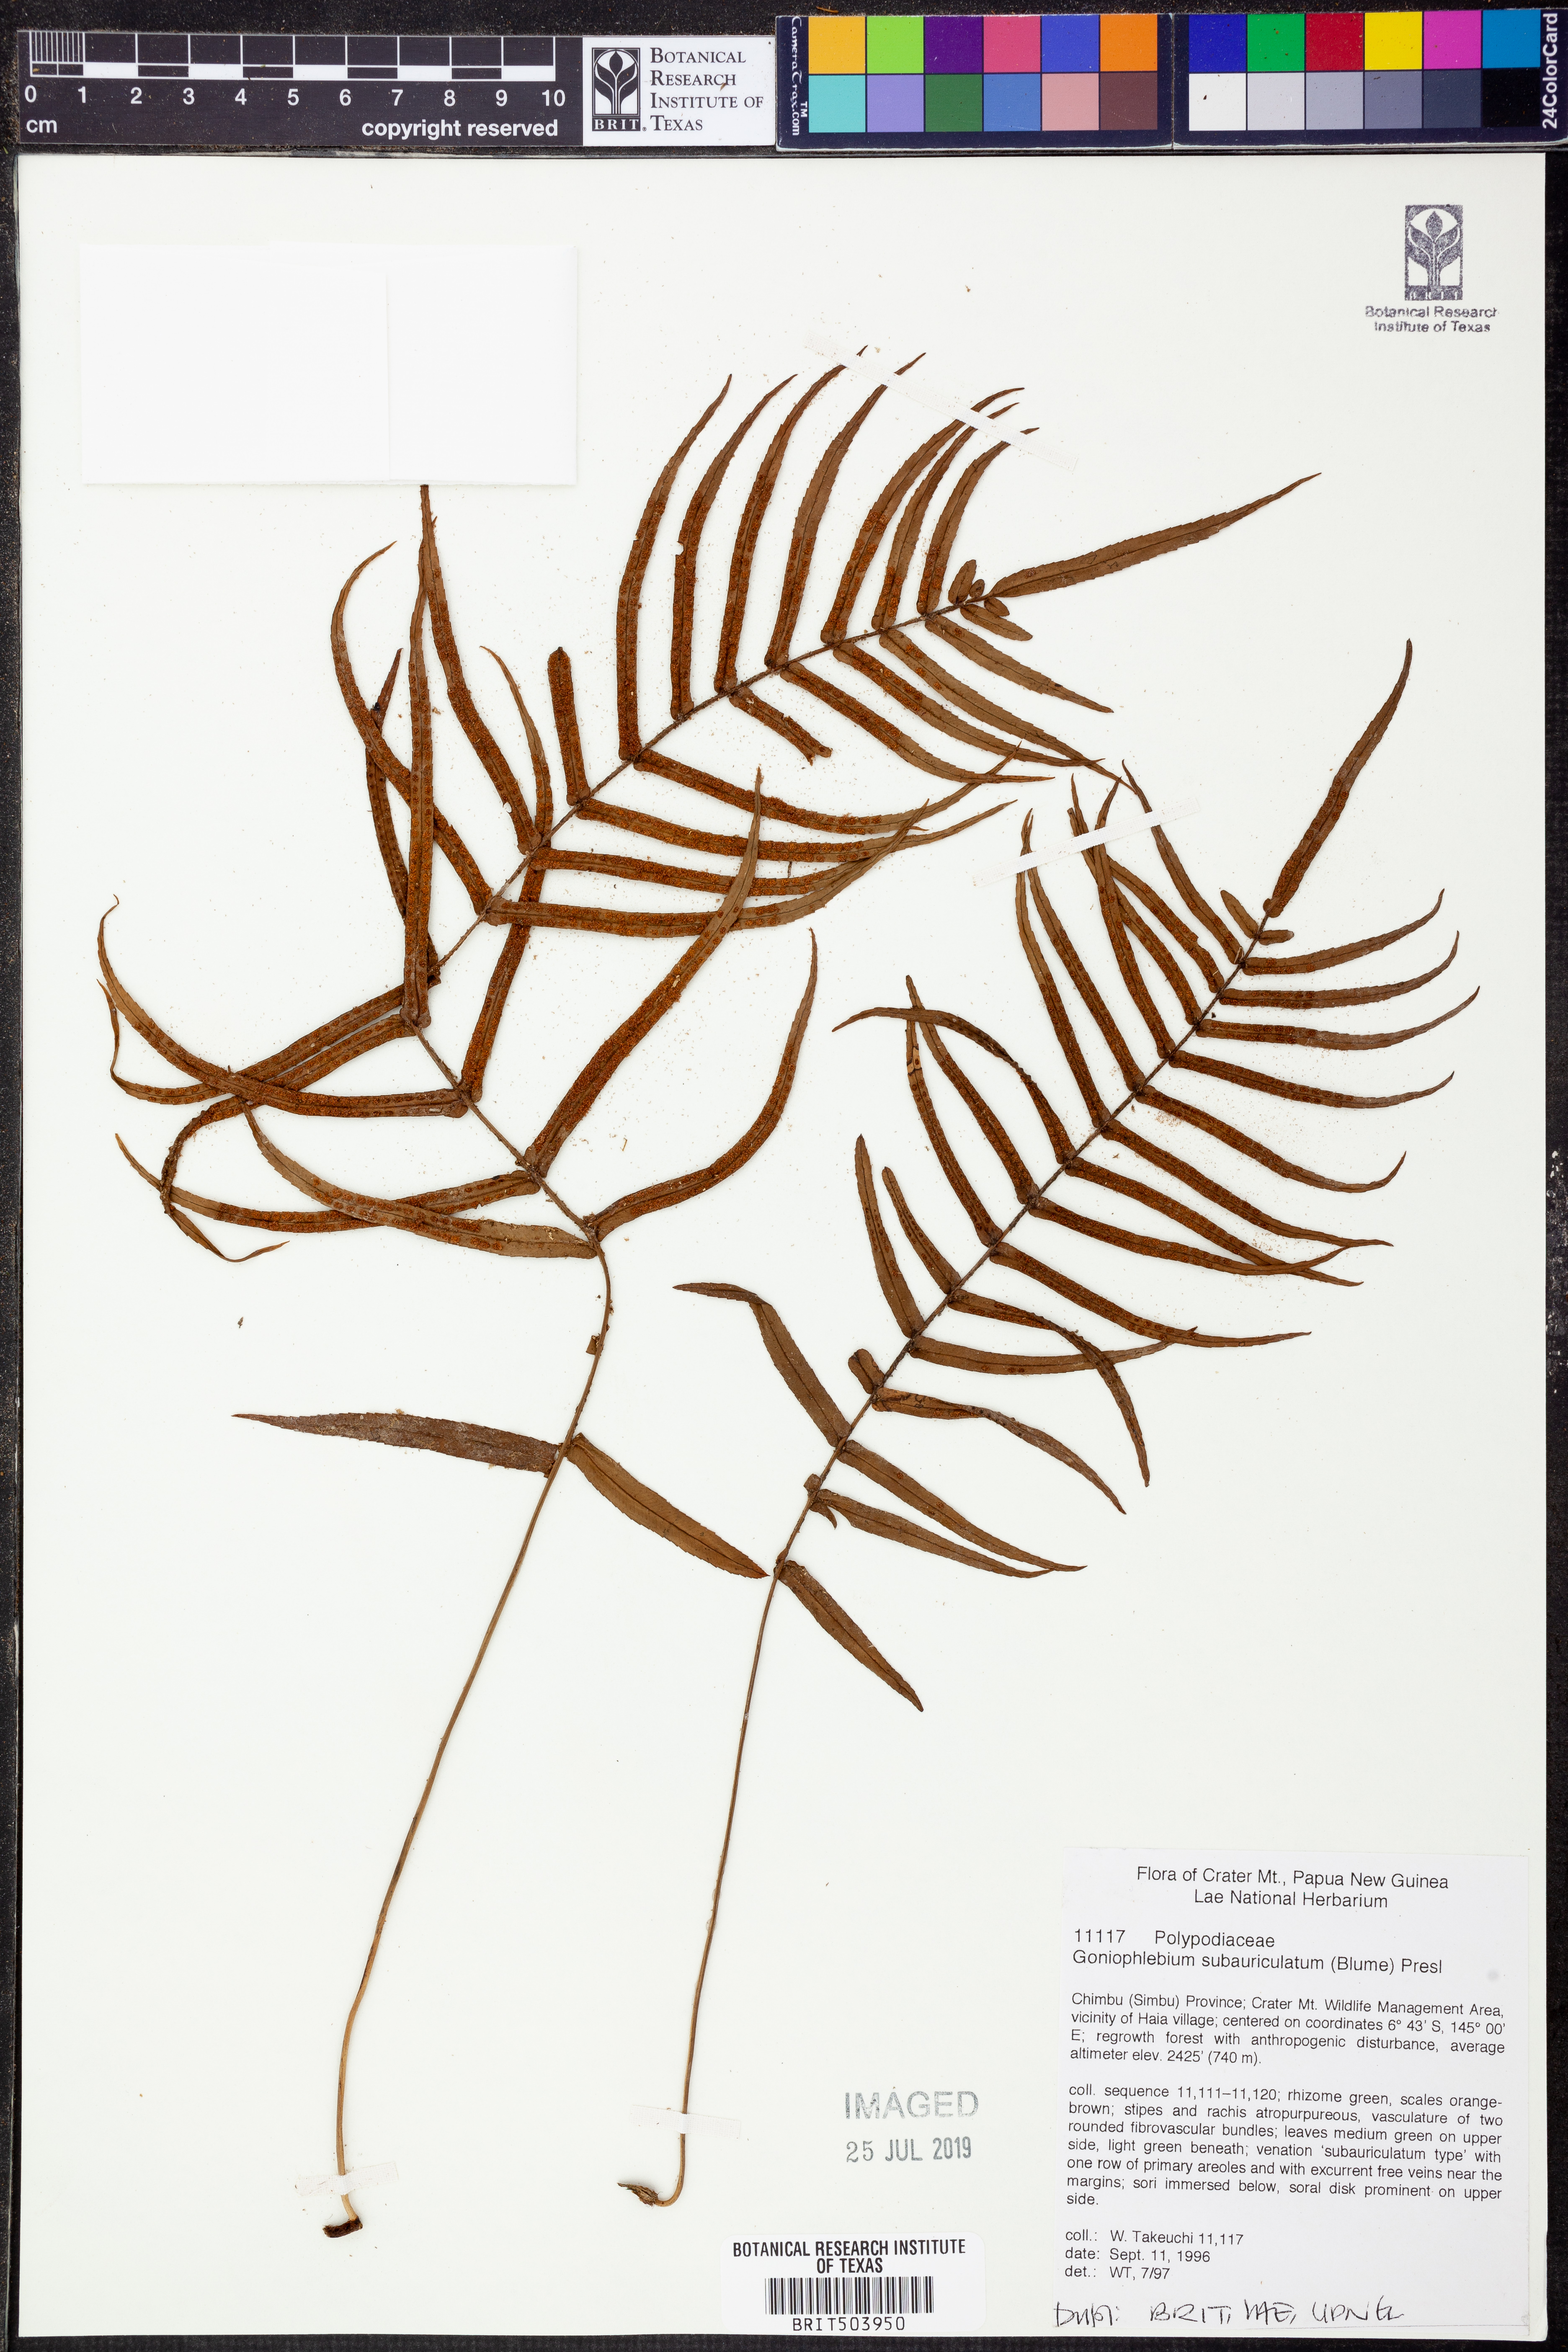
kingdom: Plantae
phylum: Tracheophyta
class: Polypodiopsida
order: Polypodiales
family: Polypodiaceae
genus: Goniophlebium
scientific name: Goniophlebium subauriculatum
